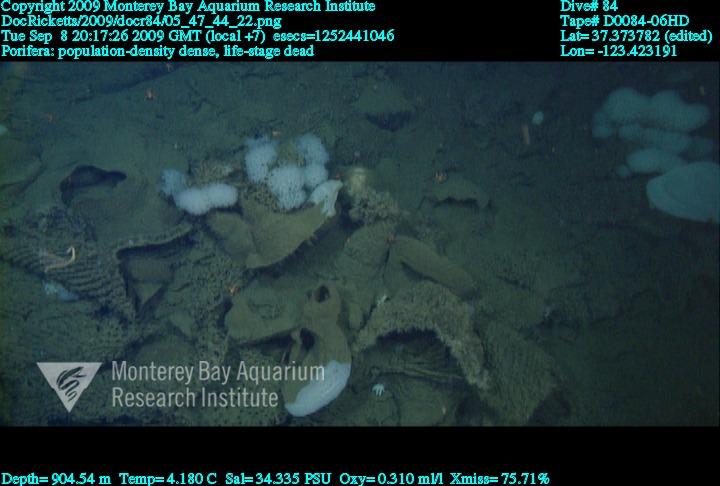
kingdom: Animalia
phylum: Porifera
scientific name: Porifera
